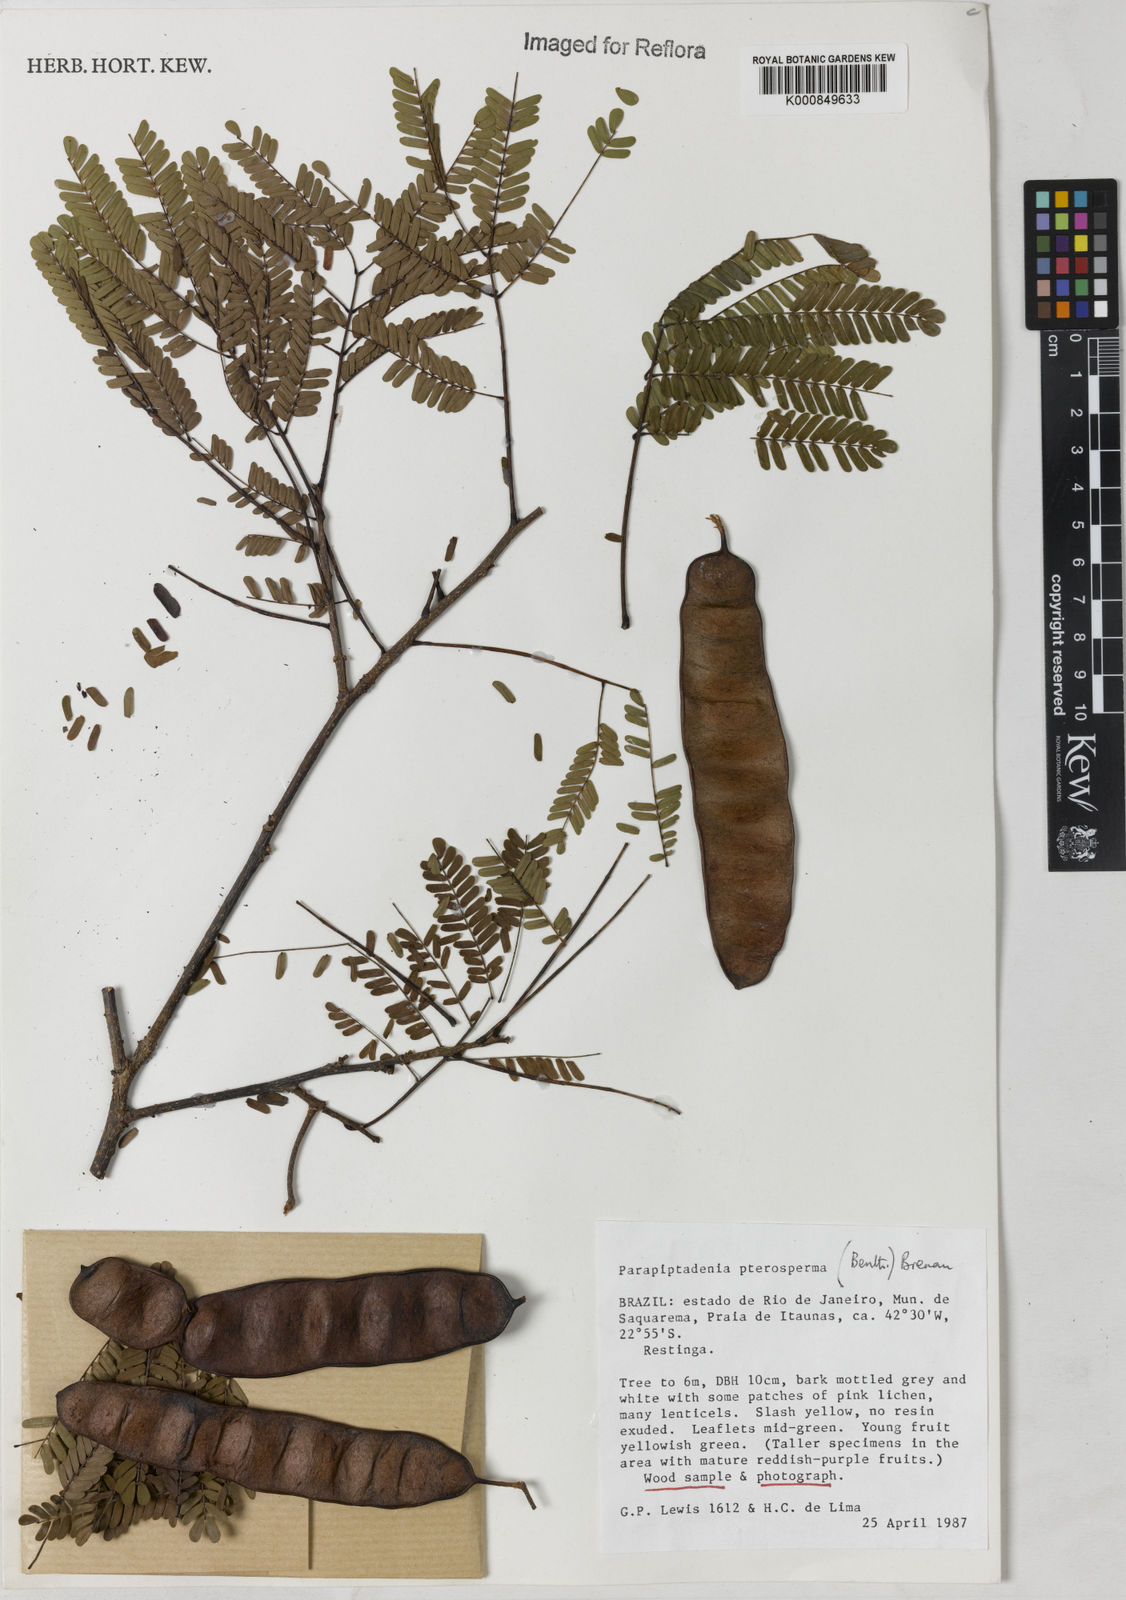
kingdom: Plantae
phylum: Tracheophyta
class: Magnoliopsida
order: Fabales
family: Fabaceae
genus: Parapiptadenia
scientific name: Parapiptadenia pterosperma
